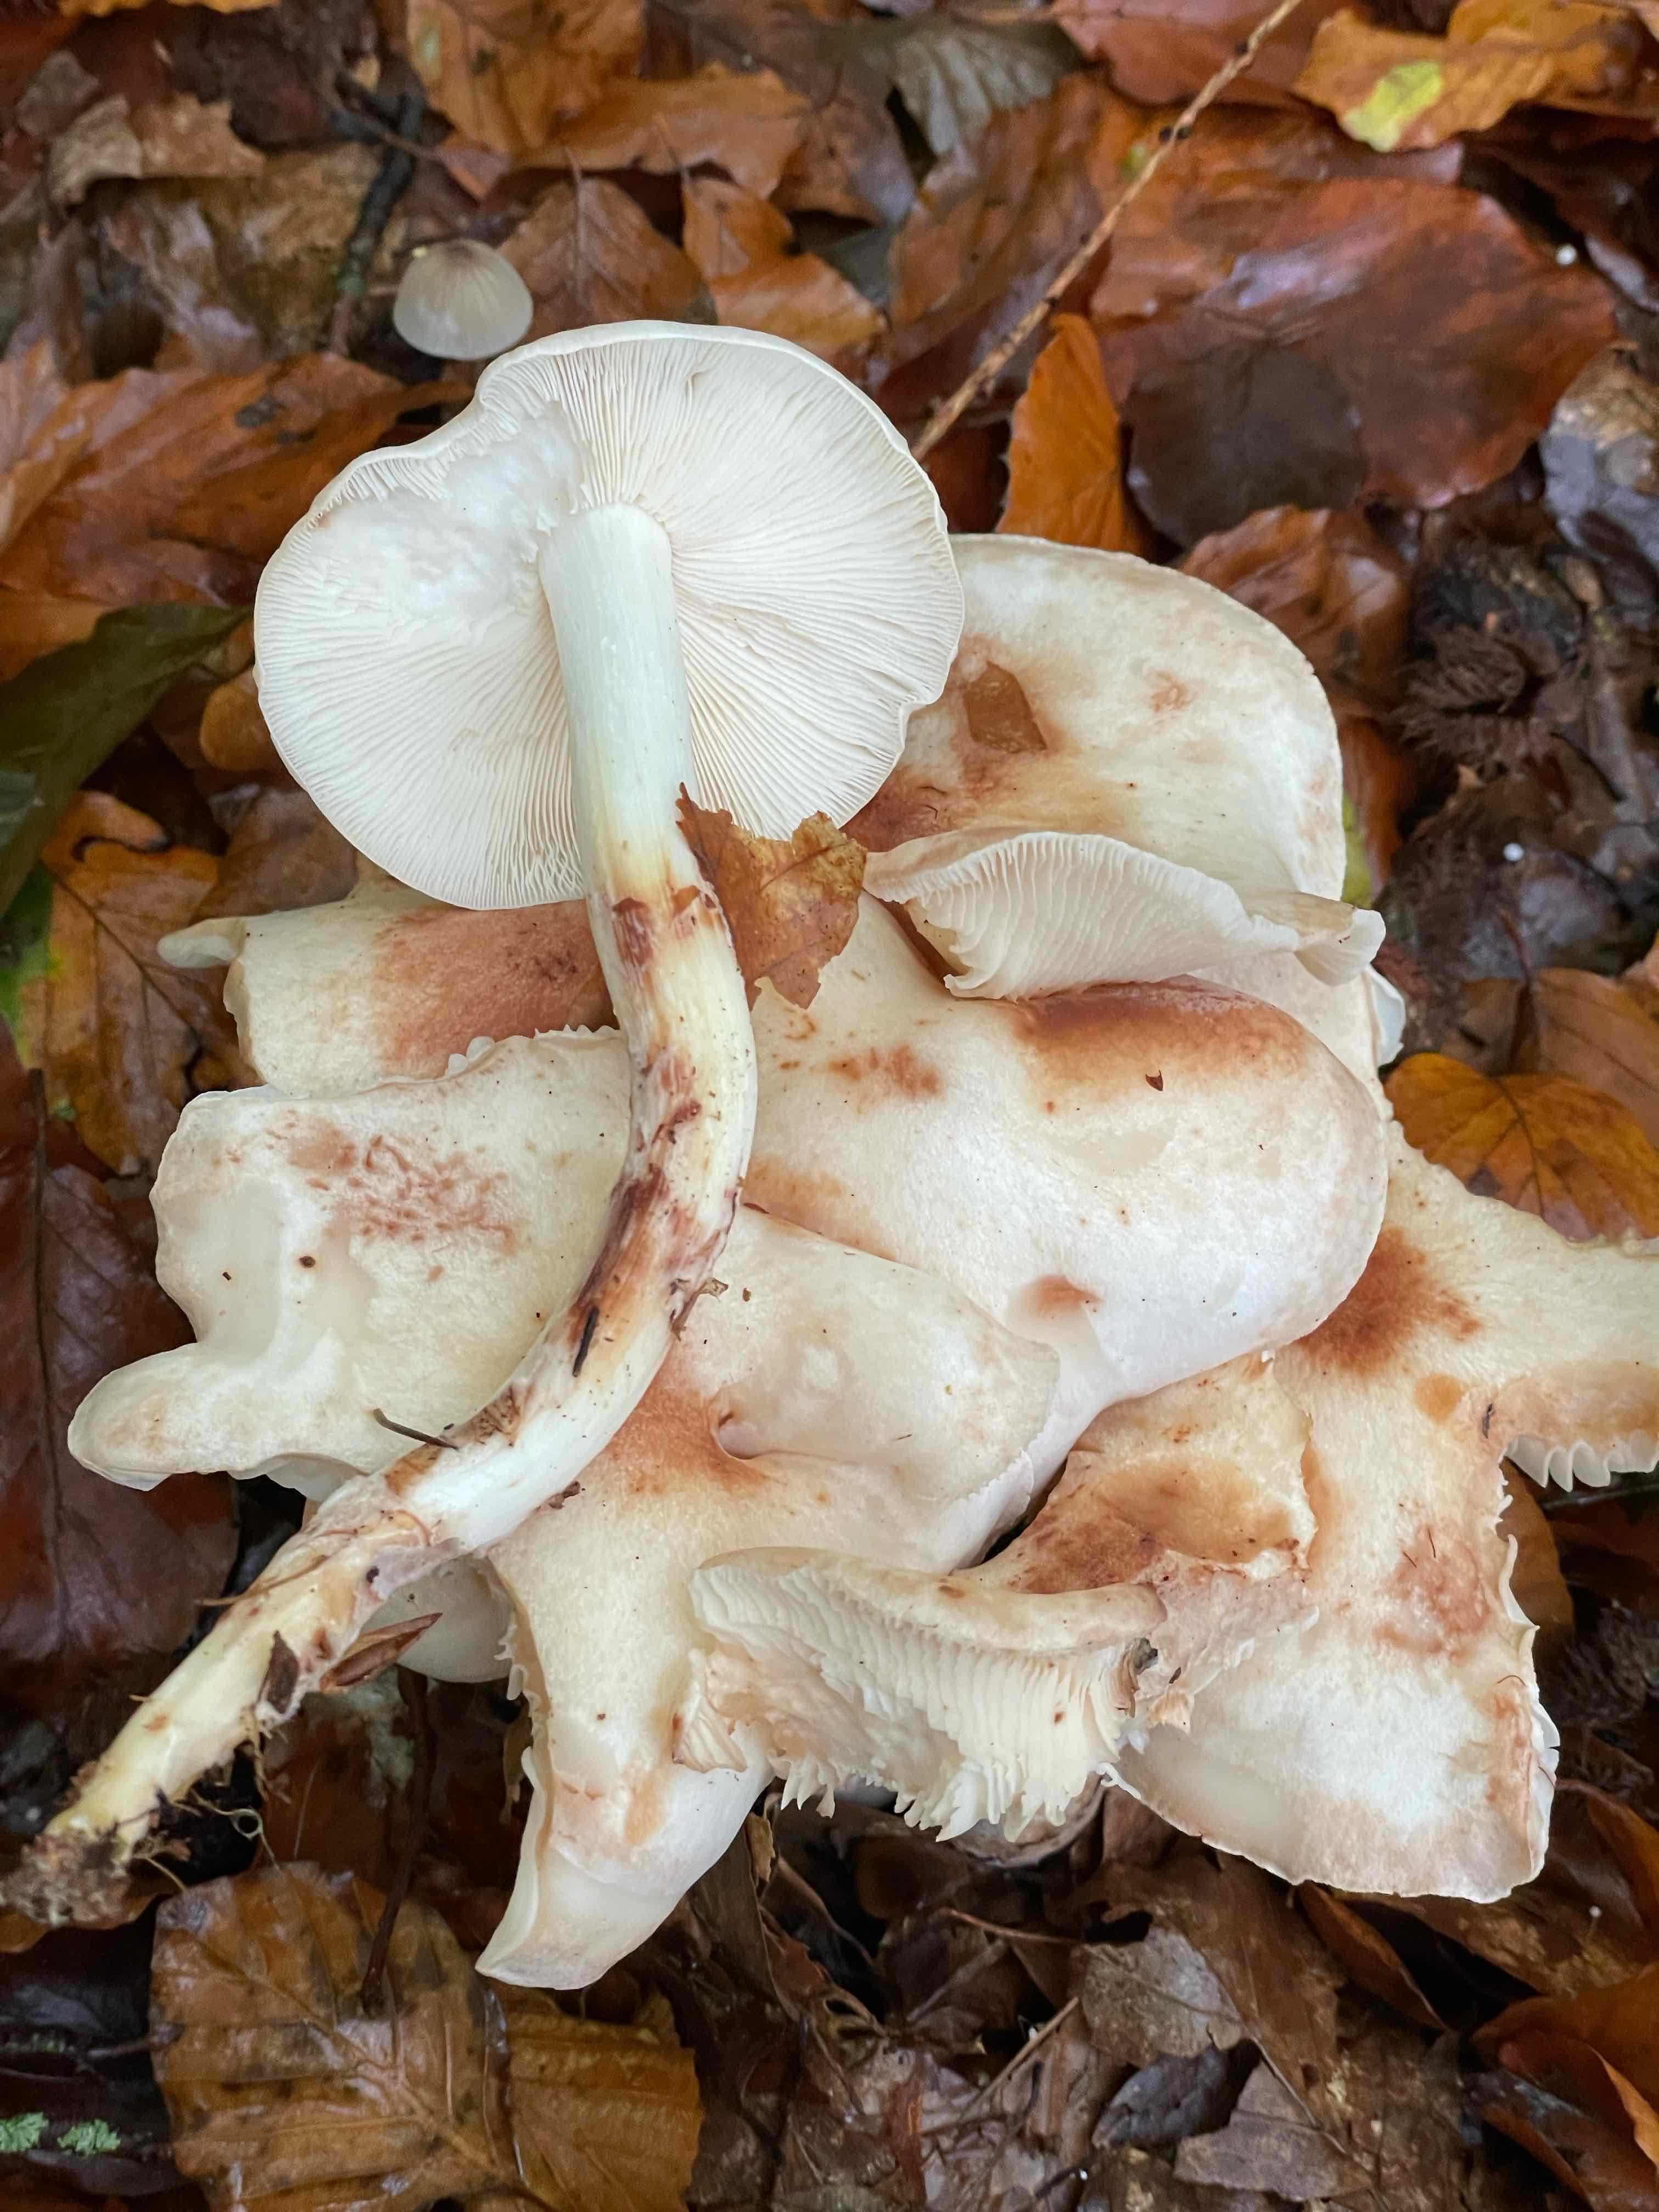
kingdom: Fungi
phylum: Basidiomycota
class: Agaricomycetes
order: Agaricales
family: Omphalotaceae
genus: Rhodocollybia
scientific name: Rhodocollybia maculata
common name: plettet fladhat
